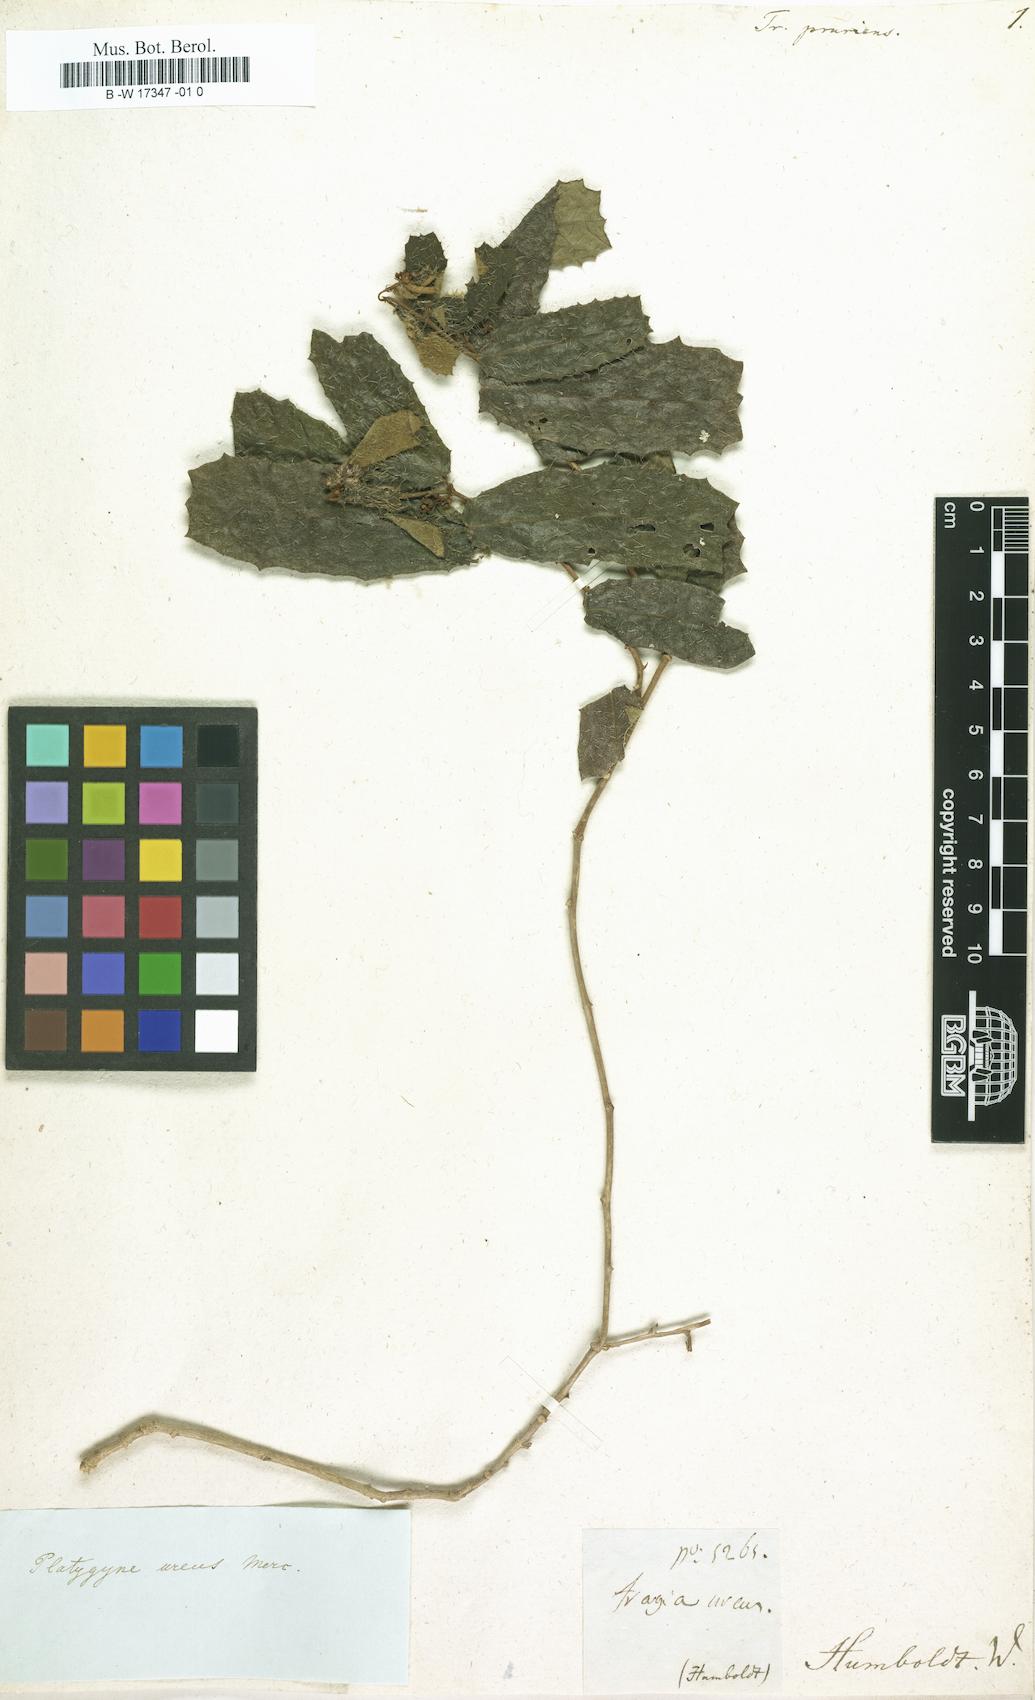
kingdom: Plantae
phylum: Tracheophyta
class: Magnoliopsida
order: Malpighiales
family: Euphorbiaceae
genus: Platygyna
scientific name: Platygyna hexandra
